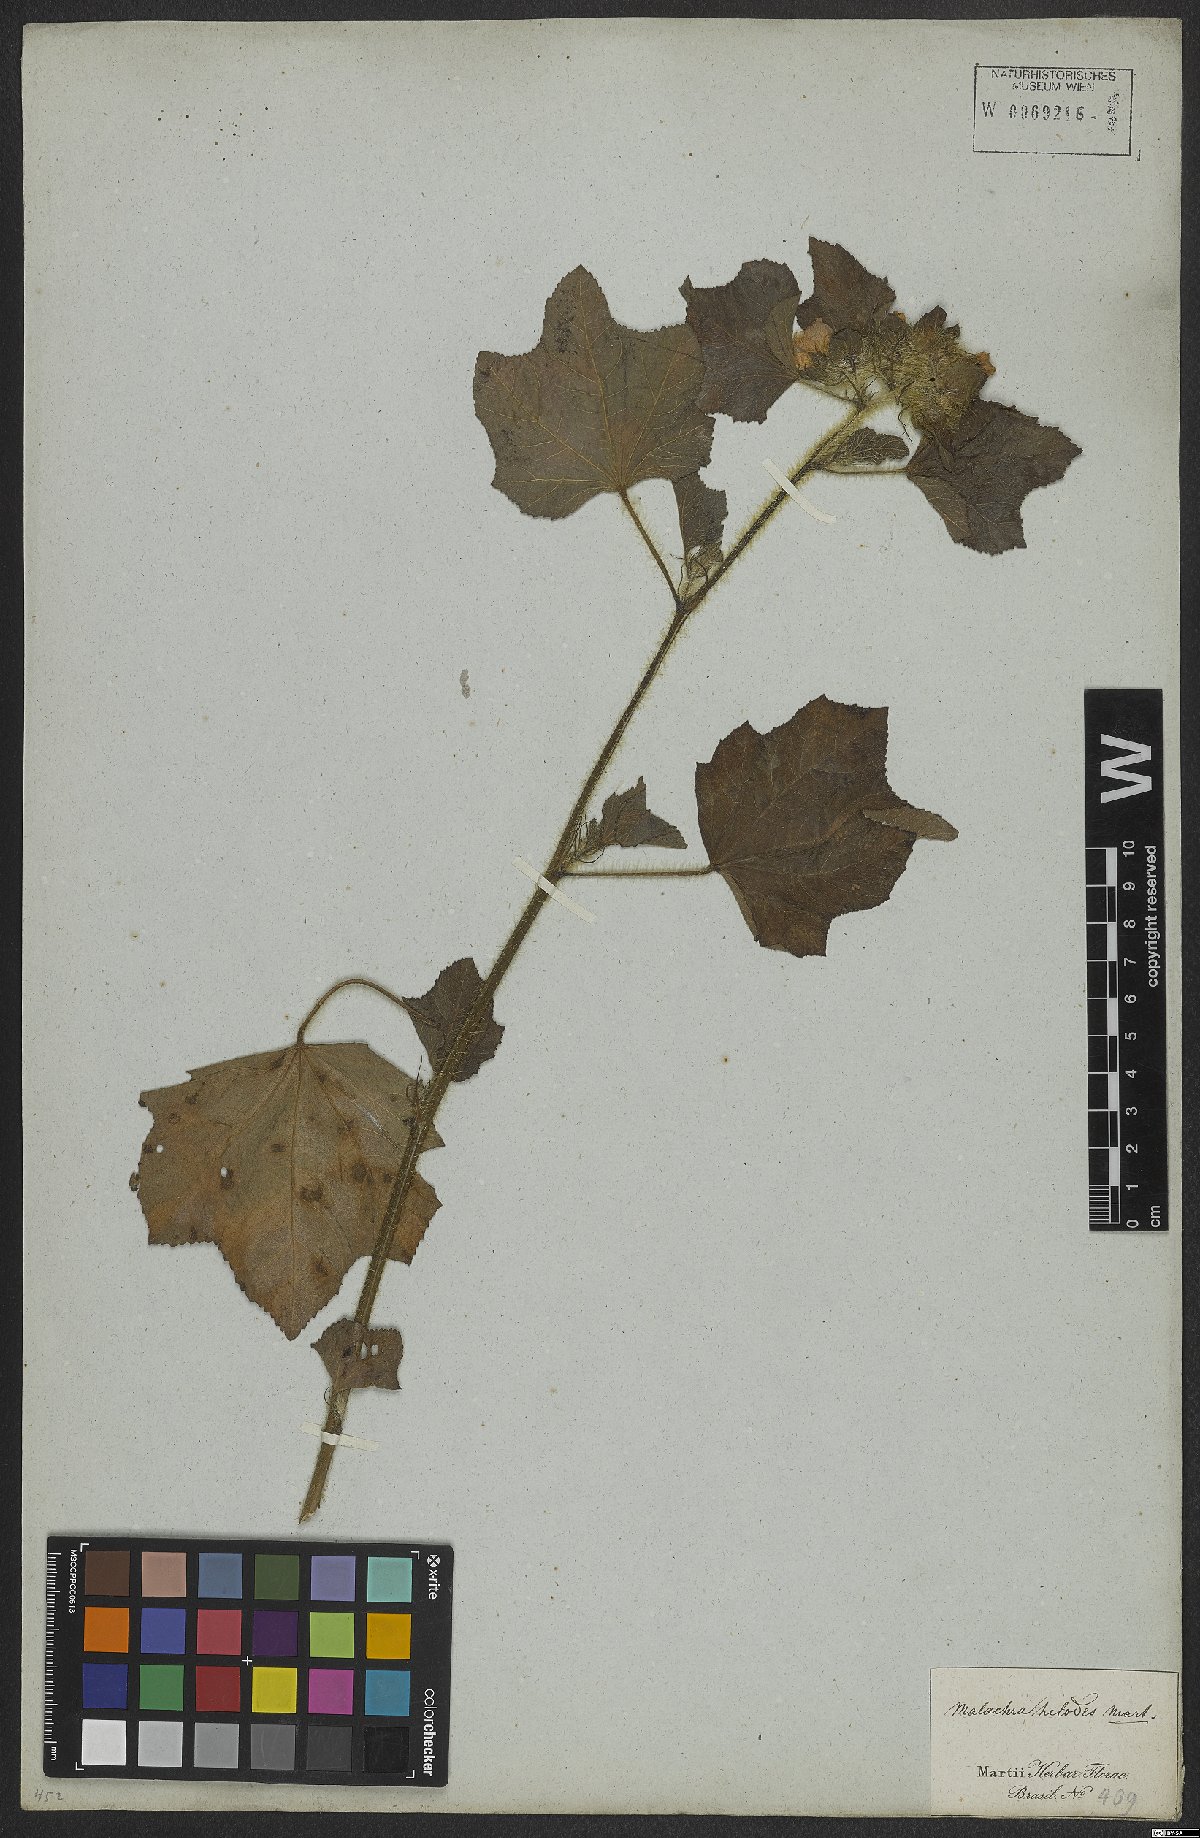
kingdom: Plantae
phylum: Tracheophyta
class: Magnoliopsida
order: Malvales
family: Malvaceae
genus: Malachra
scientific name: Malachra helodes
